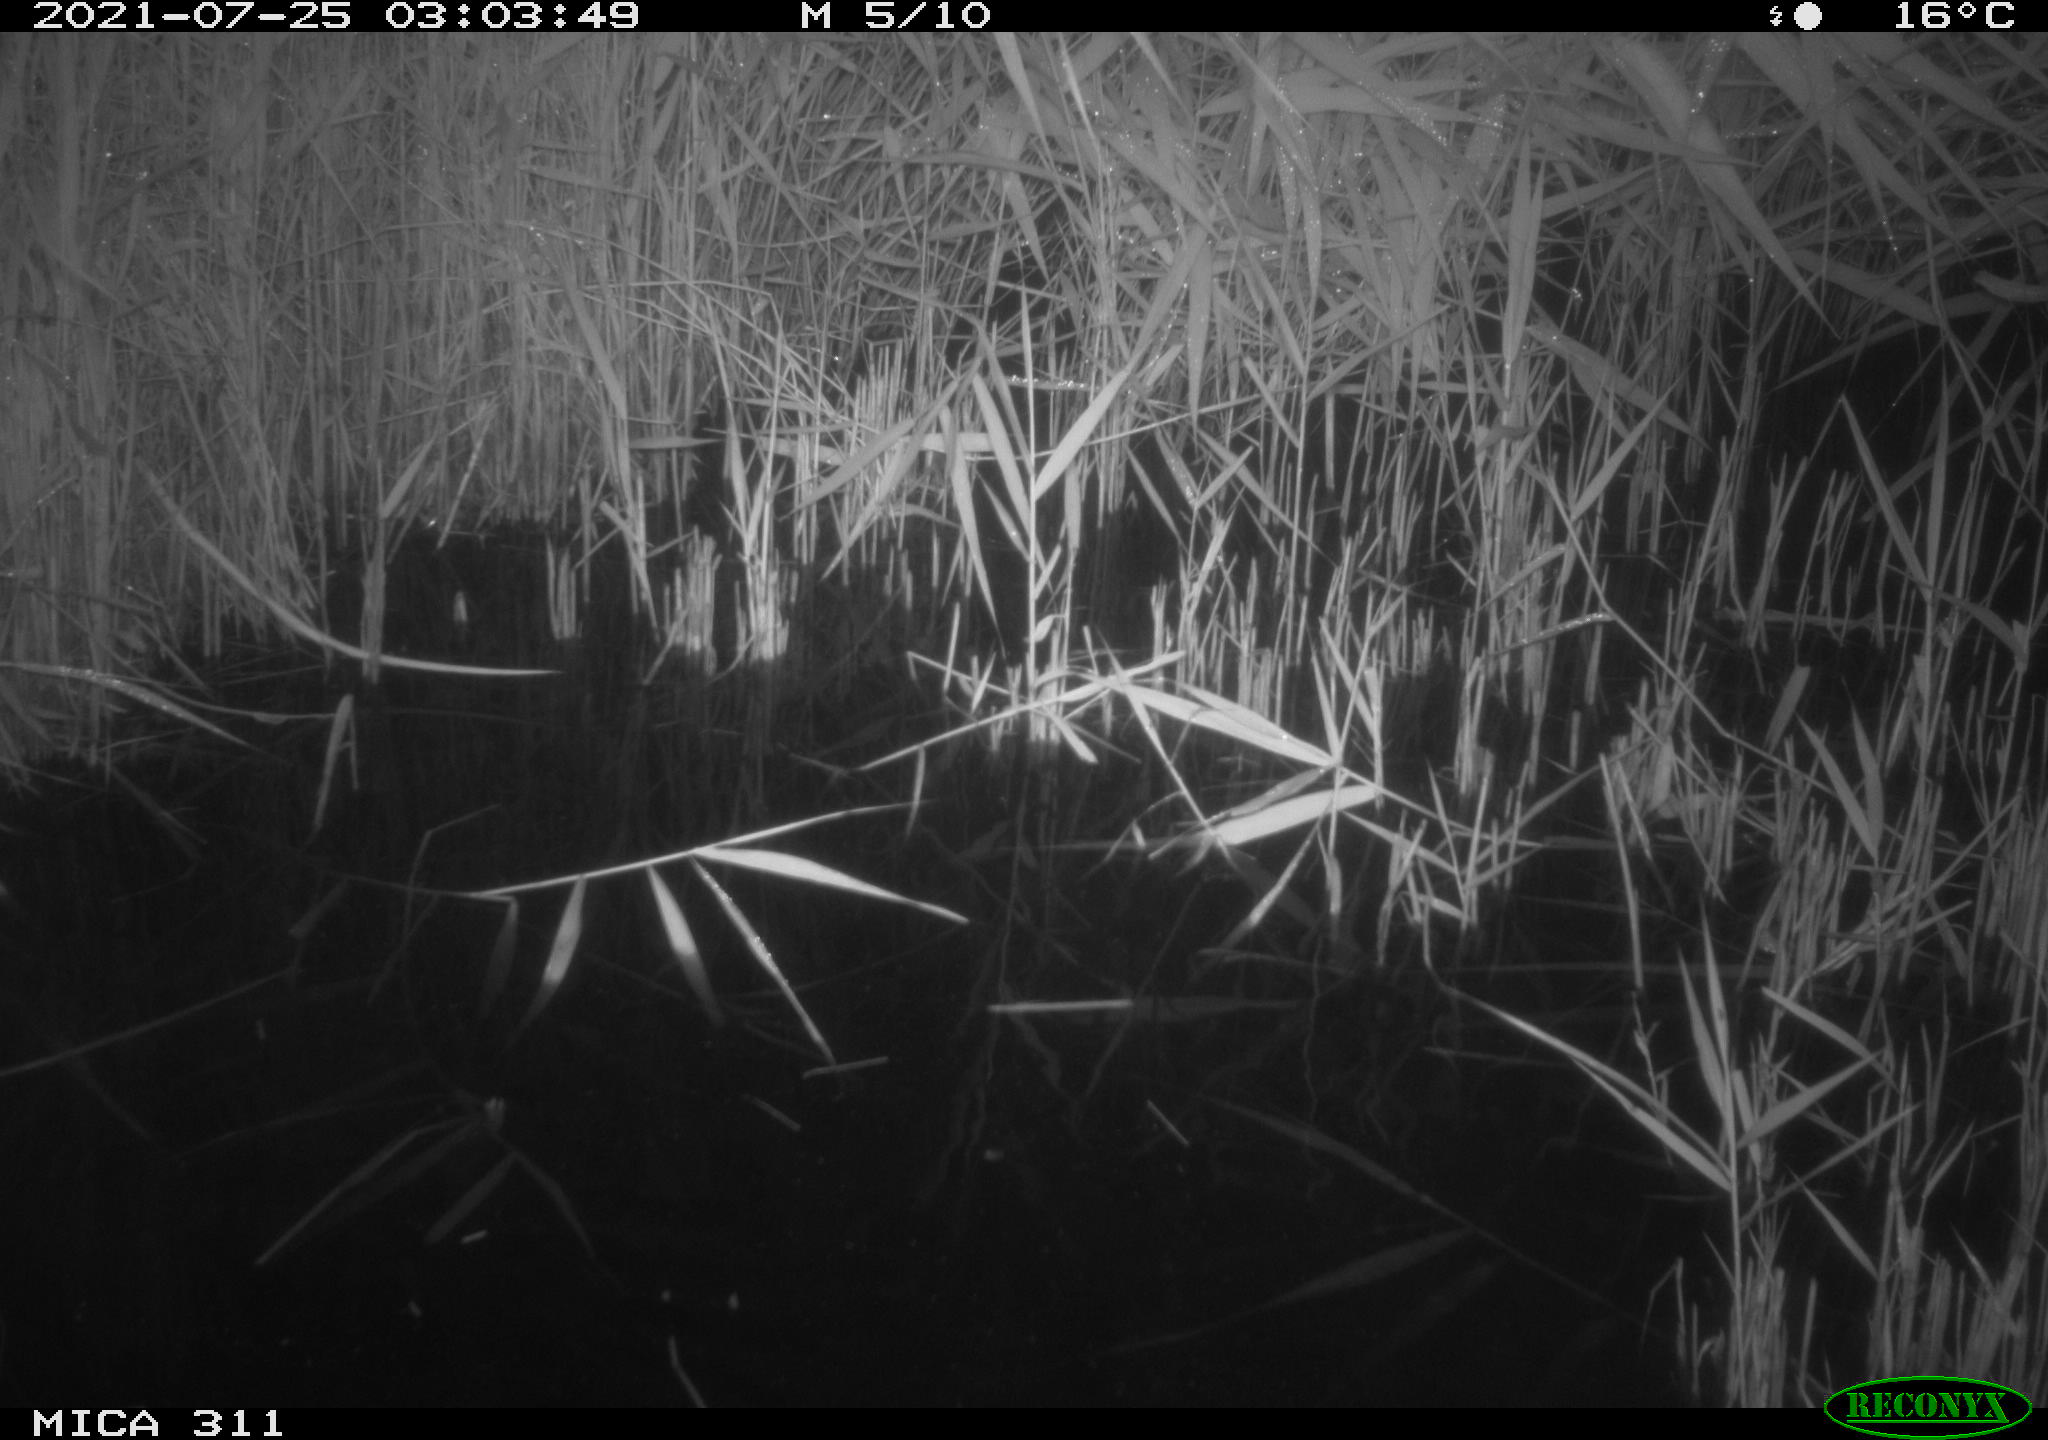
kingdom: Animalia
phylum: Chordata
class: Mammalia
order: Rodentia
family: Muridae
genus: Rattus
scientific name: Rattus norvegicus
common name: Brown rat
